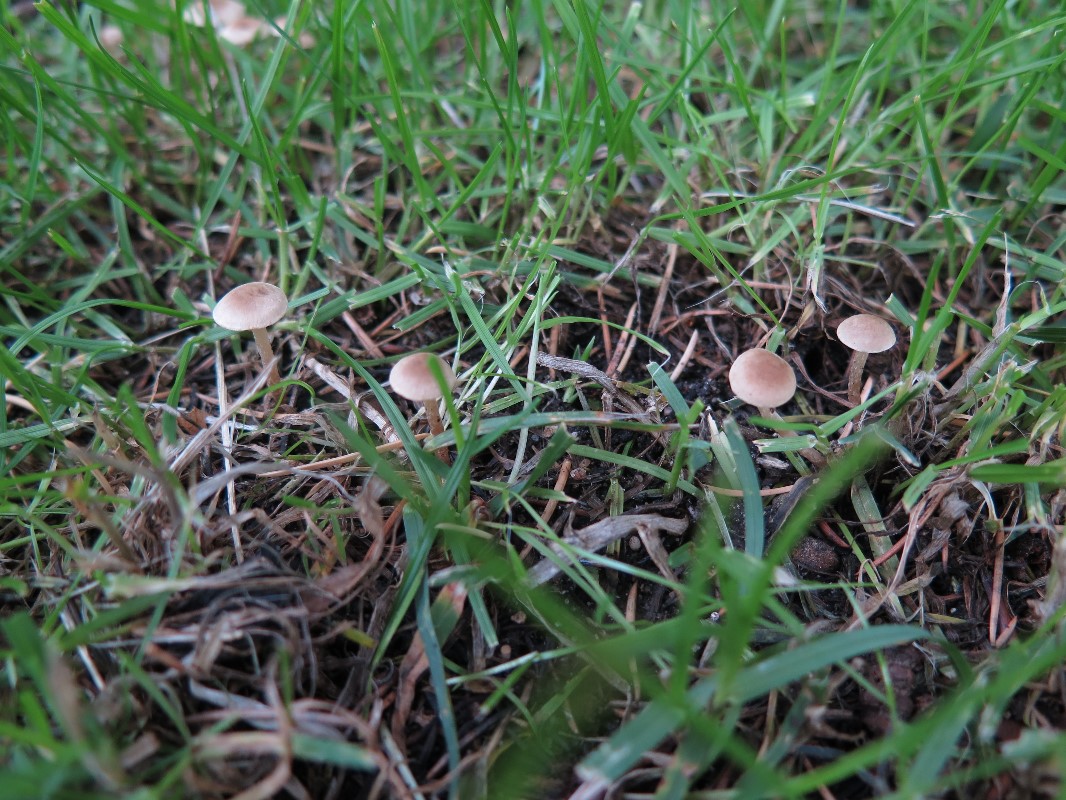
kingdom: Fungi
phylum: Basidiomycota
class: Agaricomycetes
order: Agaricales
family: Tubariaceae
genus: Tubaria
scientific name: Tubaria dispersa
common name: tjørne-fnughat
